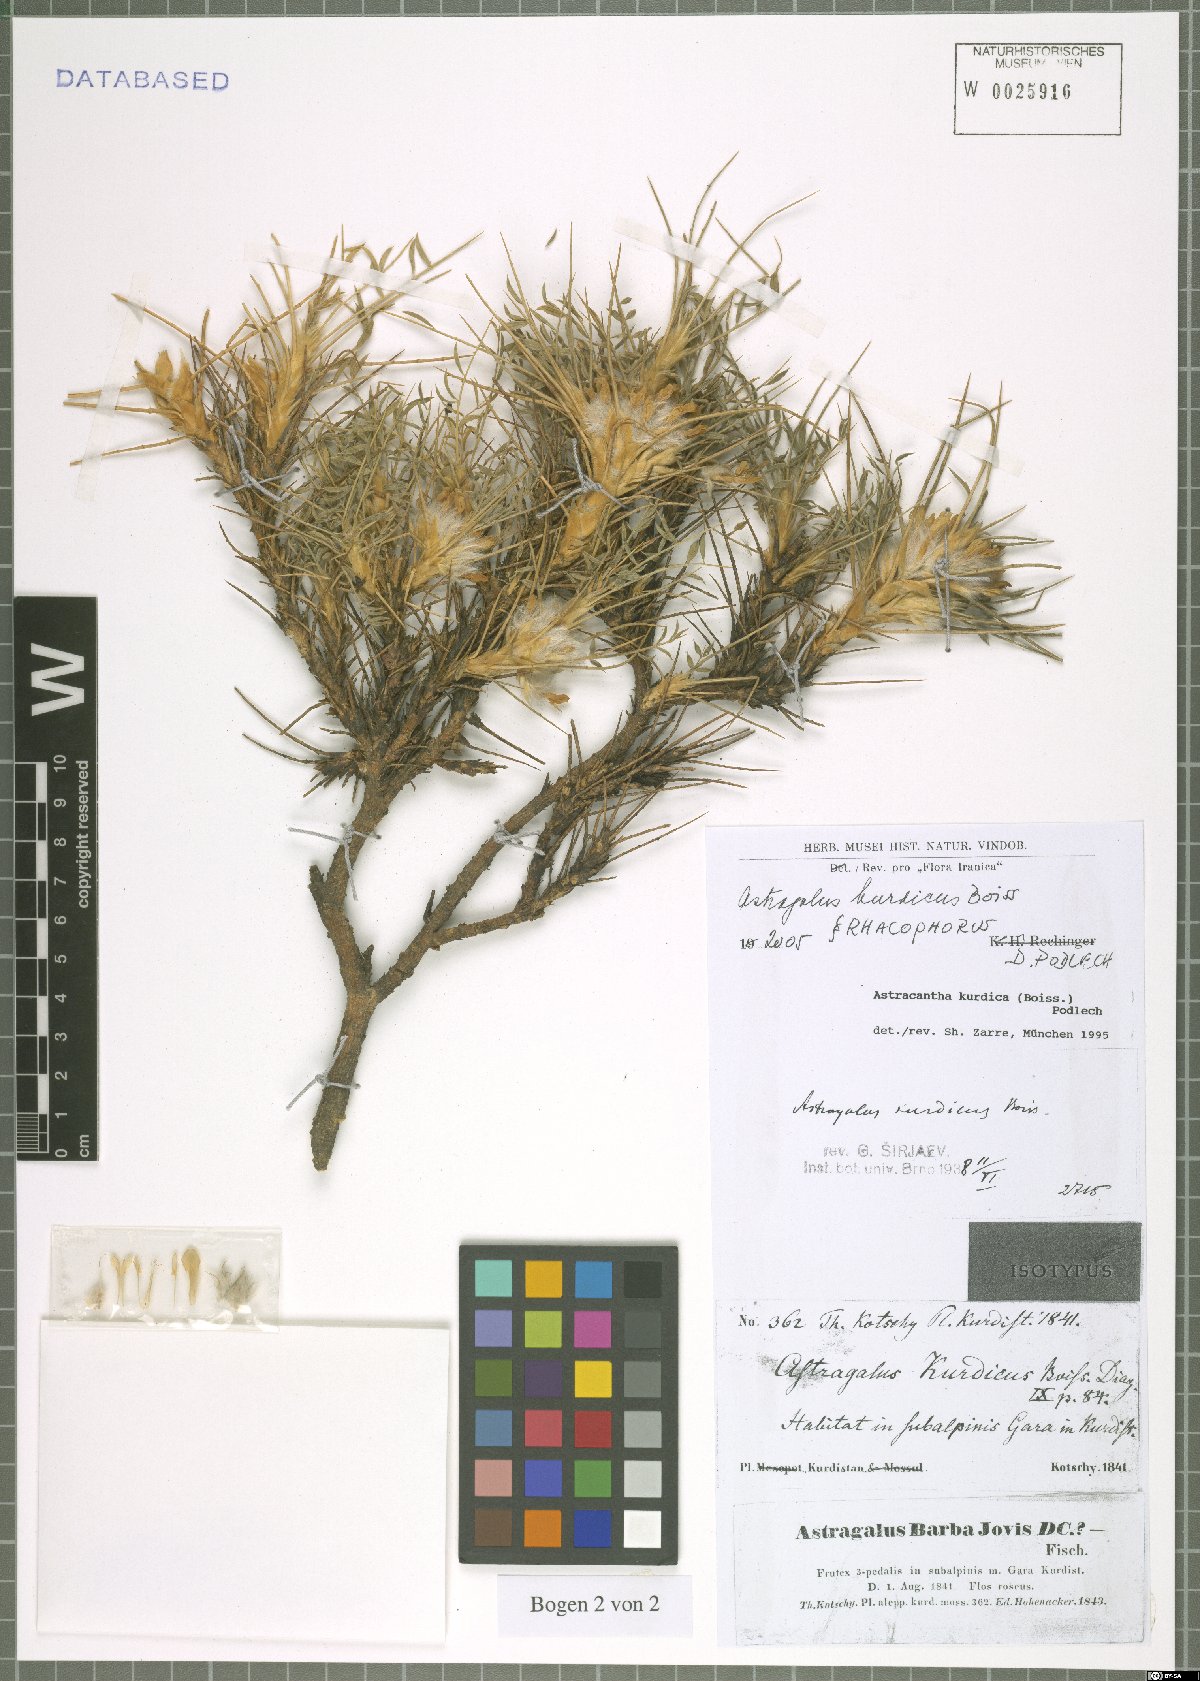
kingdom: Plantae
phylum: Tracheophyta
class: Magnoliopsida
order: Fabales
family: Fabaceae
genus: Astragalus
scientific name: Astragalus kurdicus
